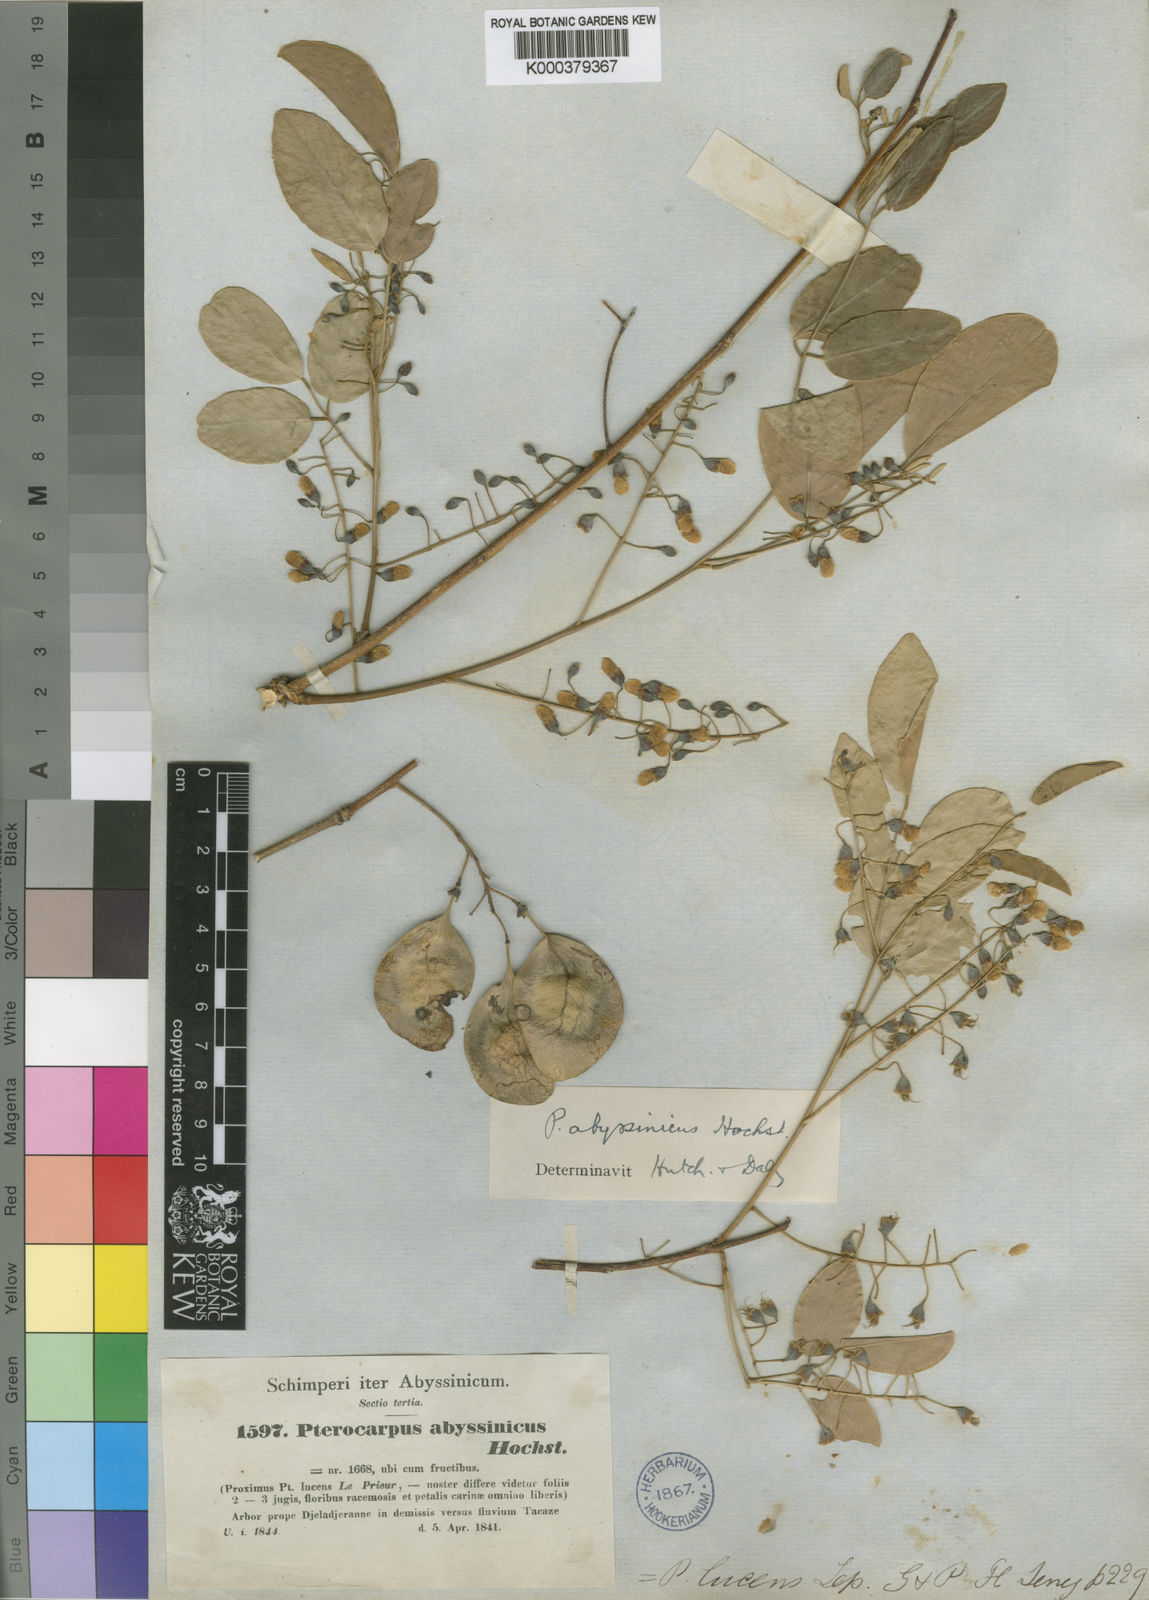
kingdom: Plantae
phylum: Tracheophyta
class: Magnoliopsida
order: Fabales
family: Fabaceae
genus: Pterocarpus
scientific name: Pterocarpus
